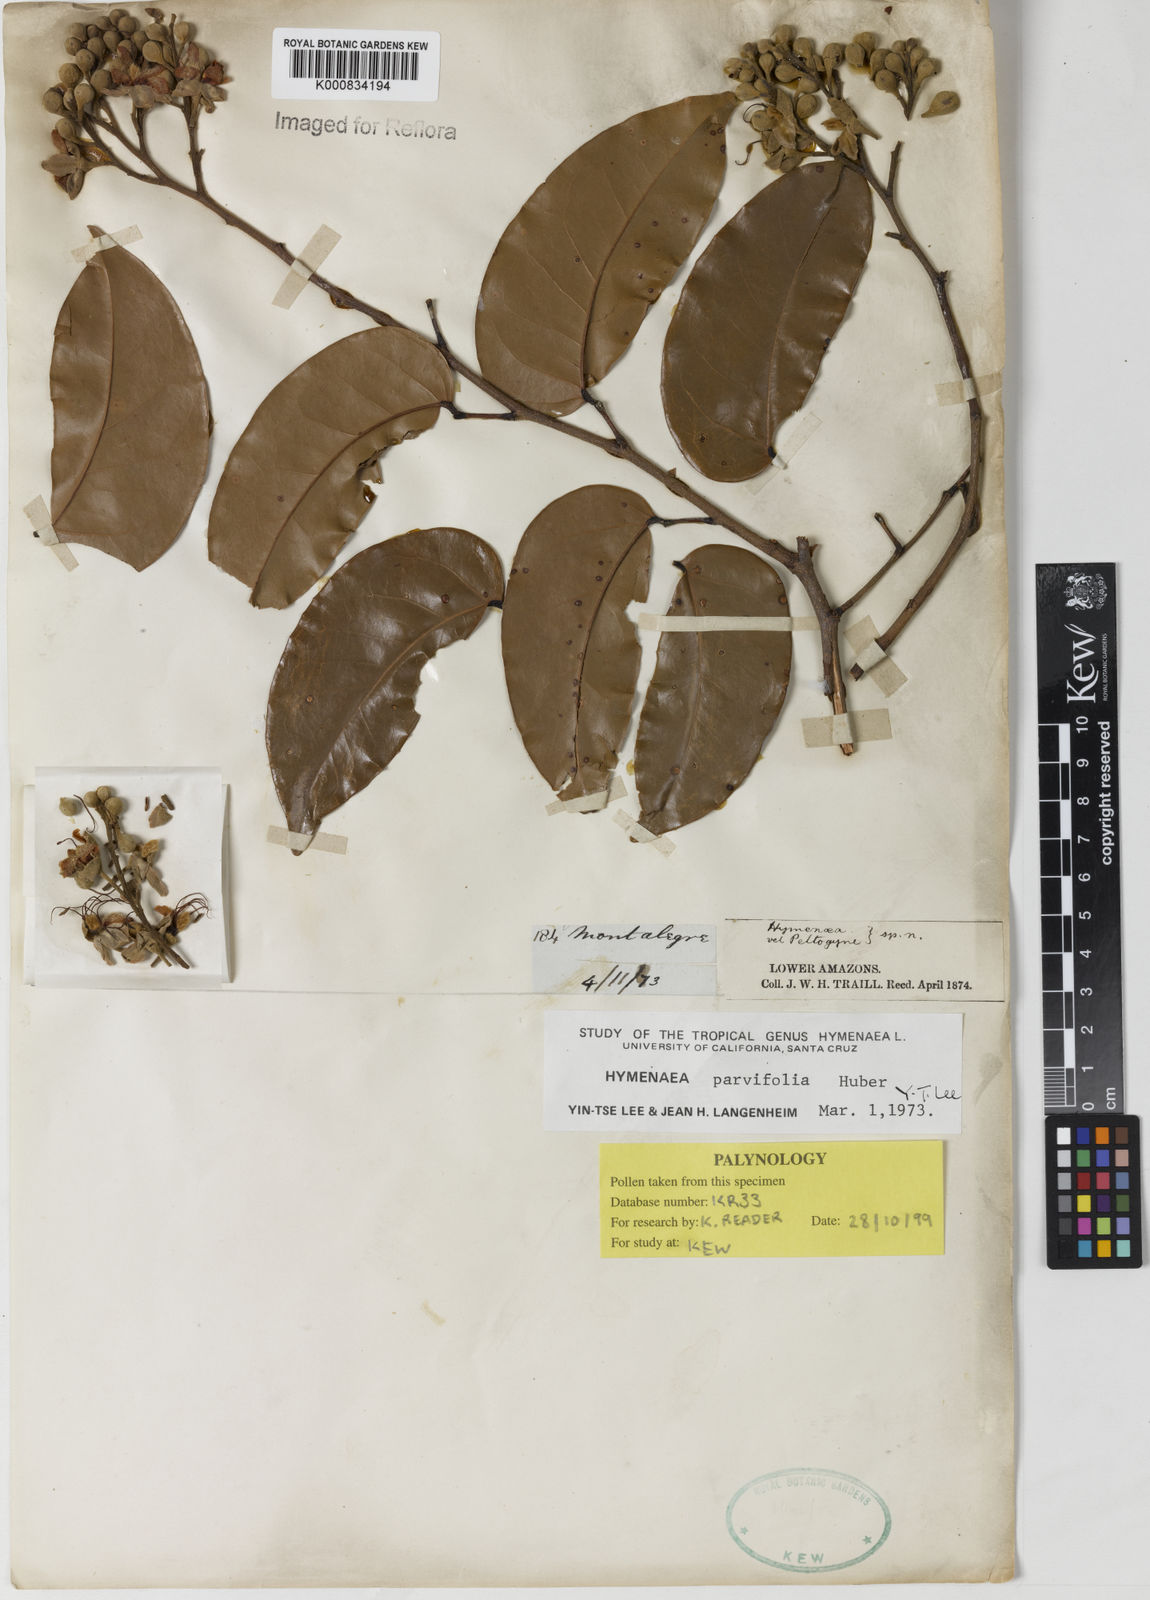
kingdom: Plantae
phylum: Tracheophyta
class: Magnoliopsida
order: Fabales
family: Fabaceae
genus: Hymenaea
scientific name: Hymenaea parvifolia
